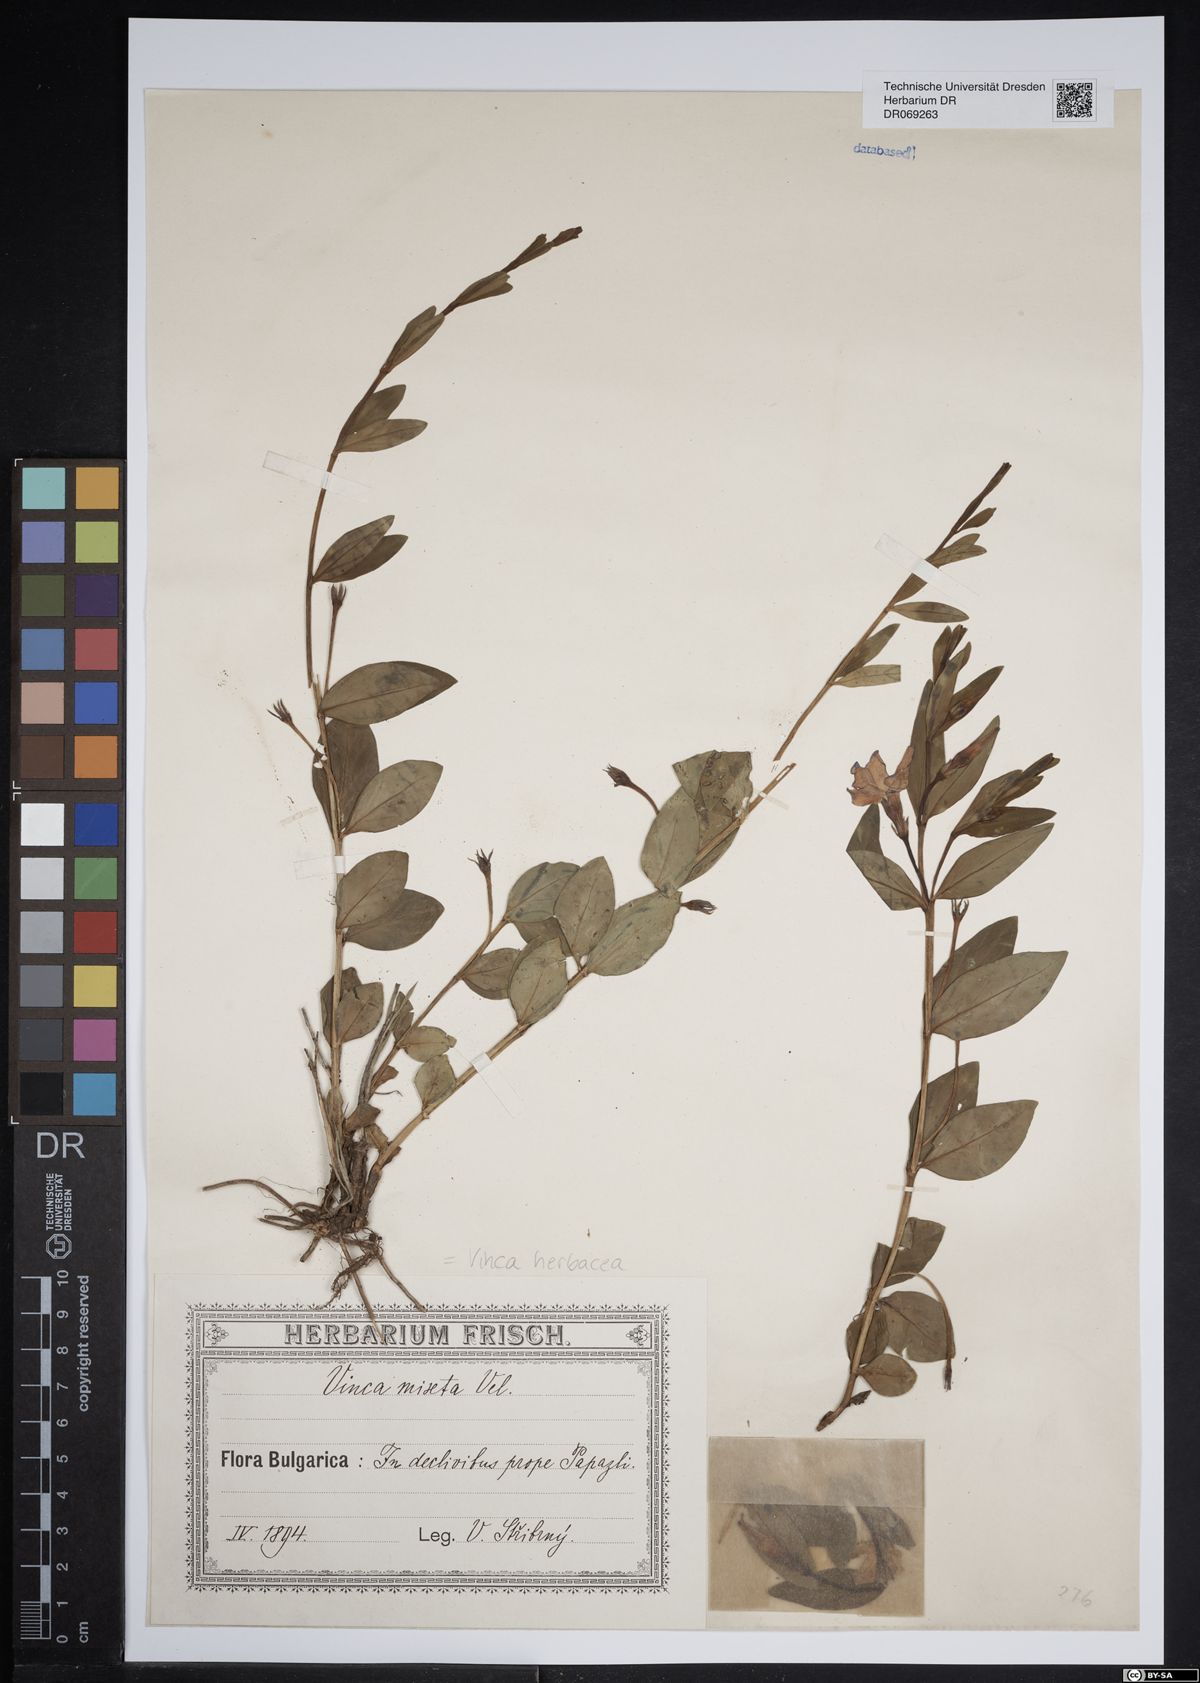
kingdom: Plantae
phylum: Tracheophyta
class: Magnoliopsida
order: Gentianales
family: Apocynaceae
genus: Vinca
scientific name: Vinca herbacea
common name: Herbaceous periwinkle
